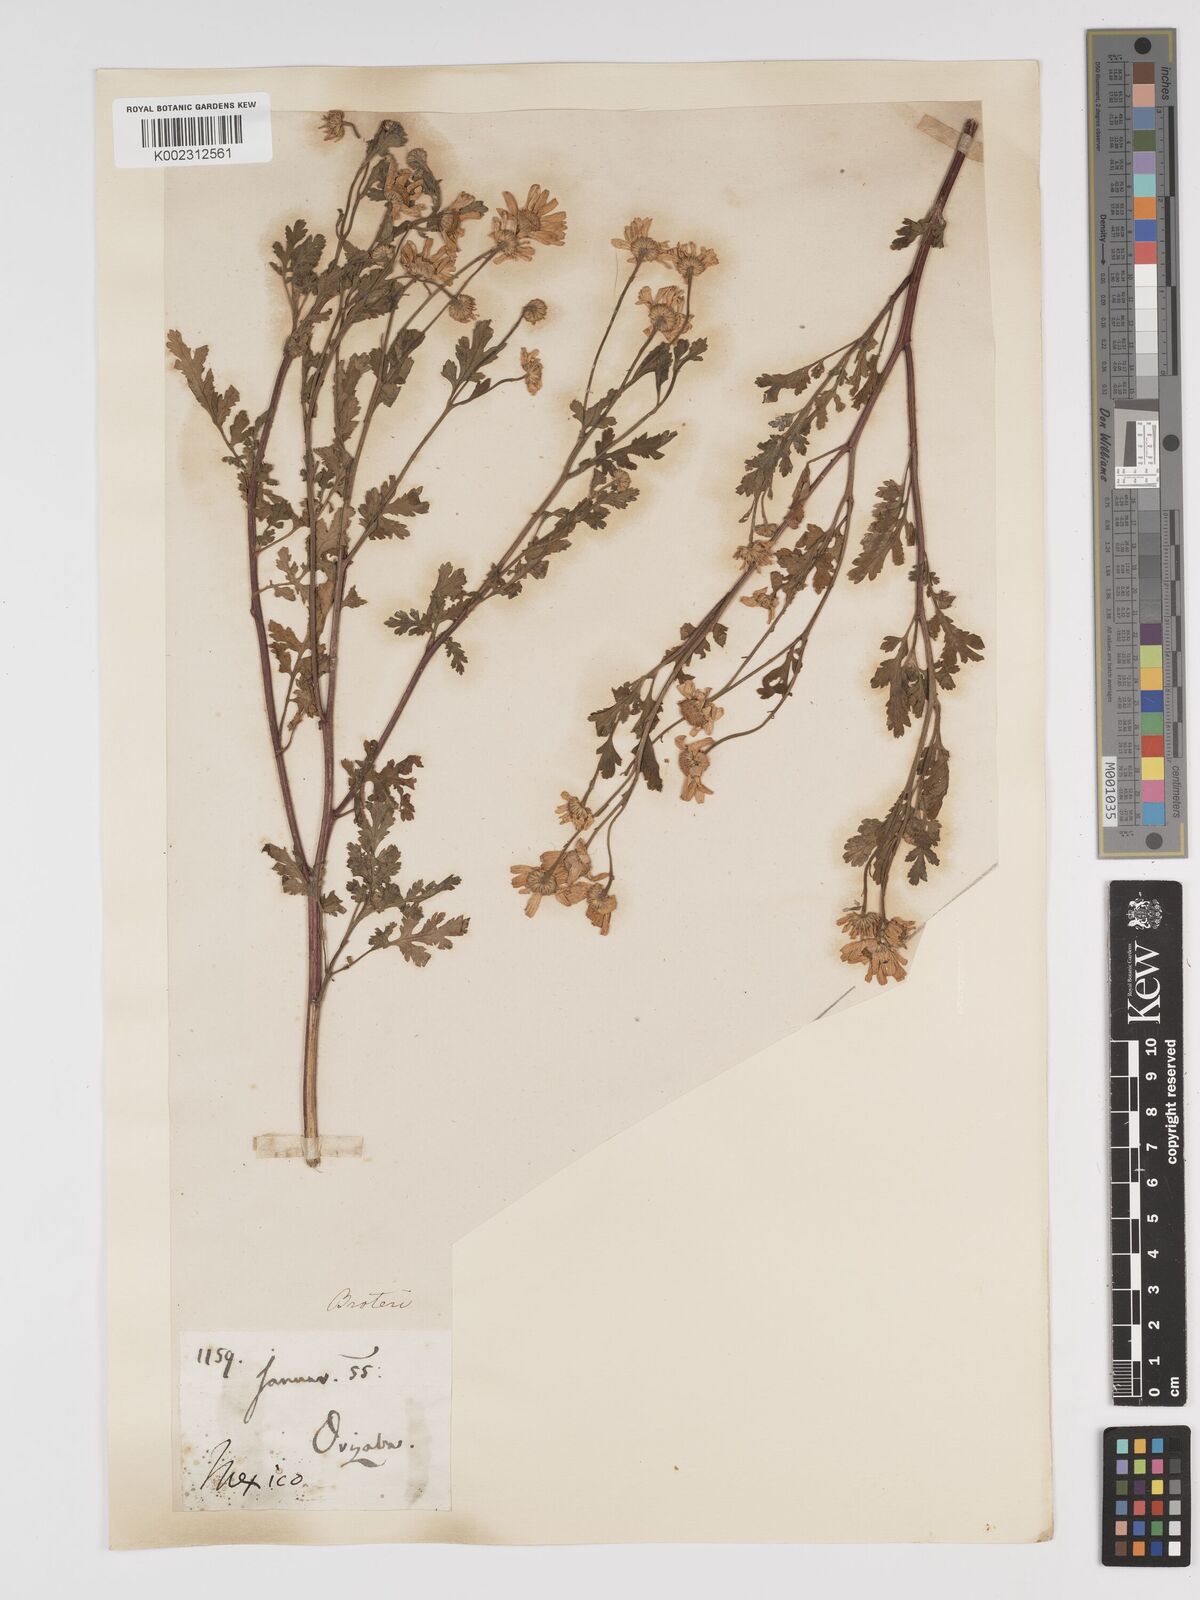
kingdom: Plantae
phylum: Tracheophyta
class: Magnoliopsida
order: Asterales
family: Asteraceae
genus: Tanacetum
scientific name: Tanacetum parthenium
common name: Feverfew
